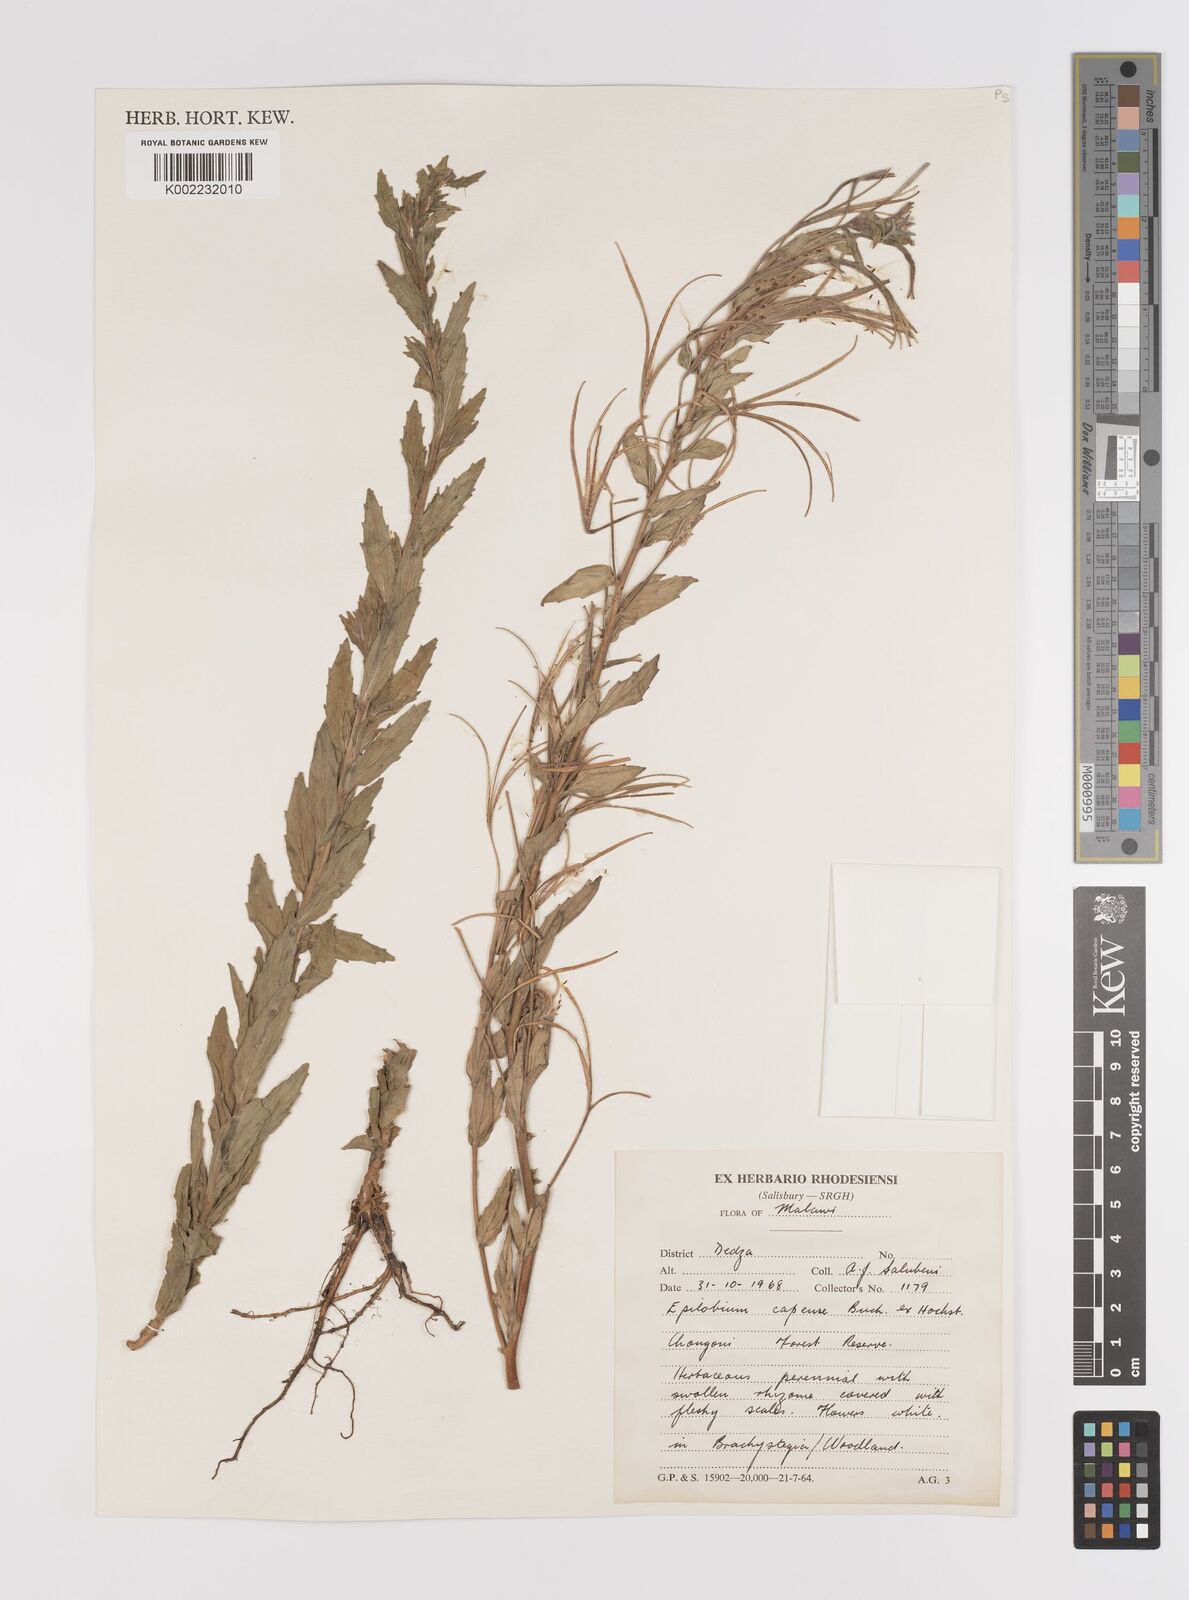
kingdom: Plantae
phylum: Tracheophyta
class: Magnoliopsida
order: Myrtales
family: Onagraceae
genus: Epilobium
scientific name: Epilobium capense
